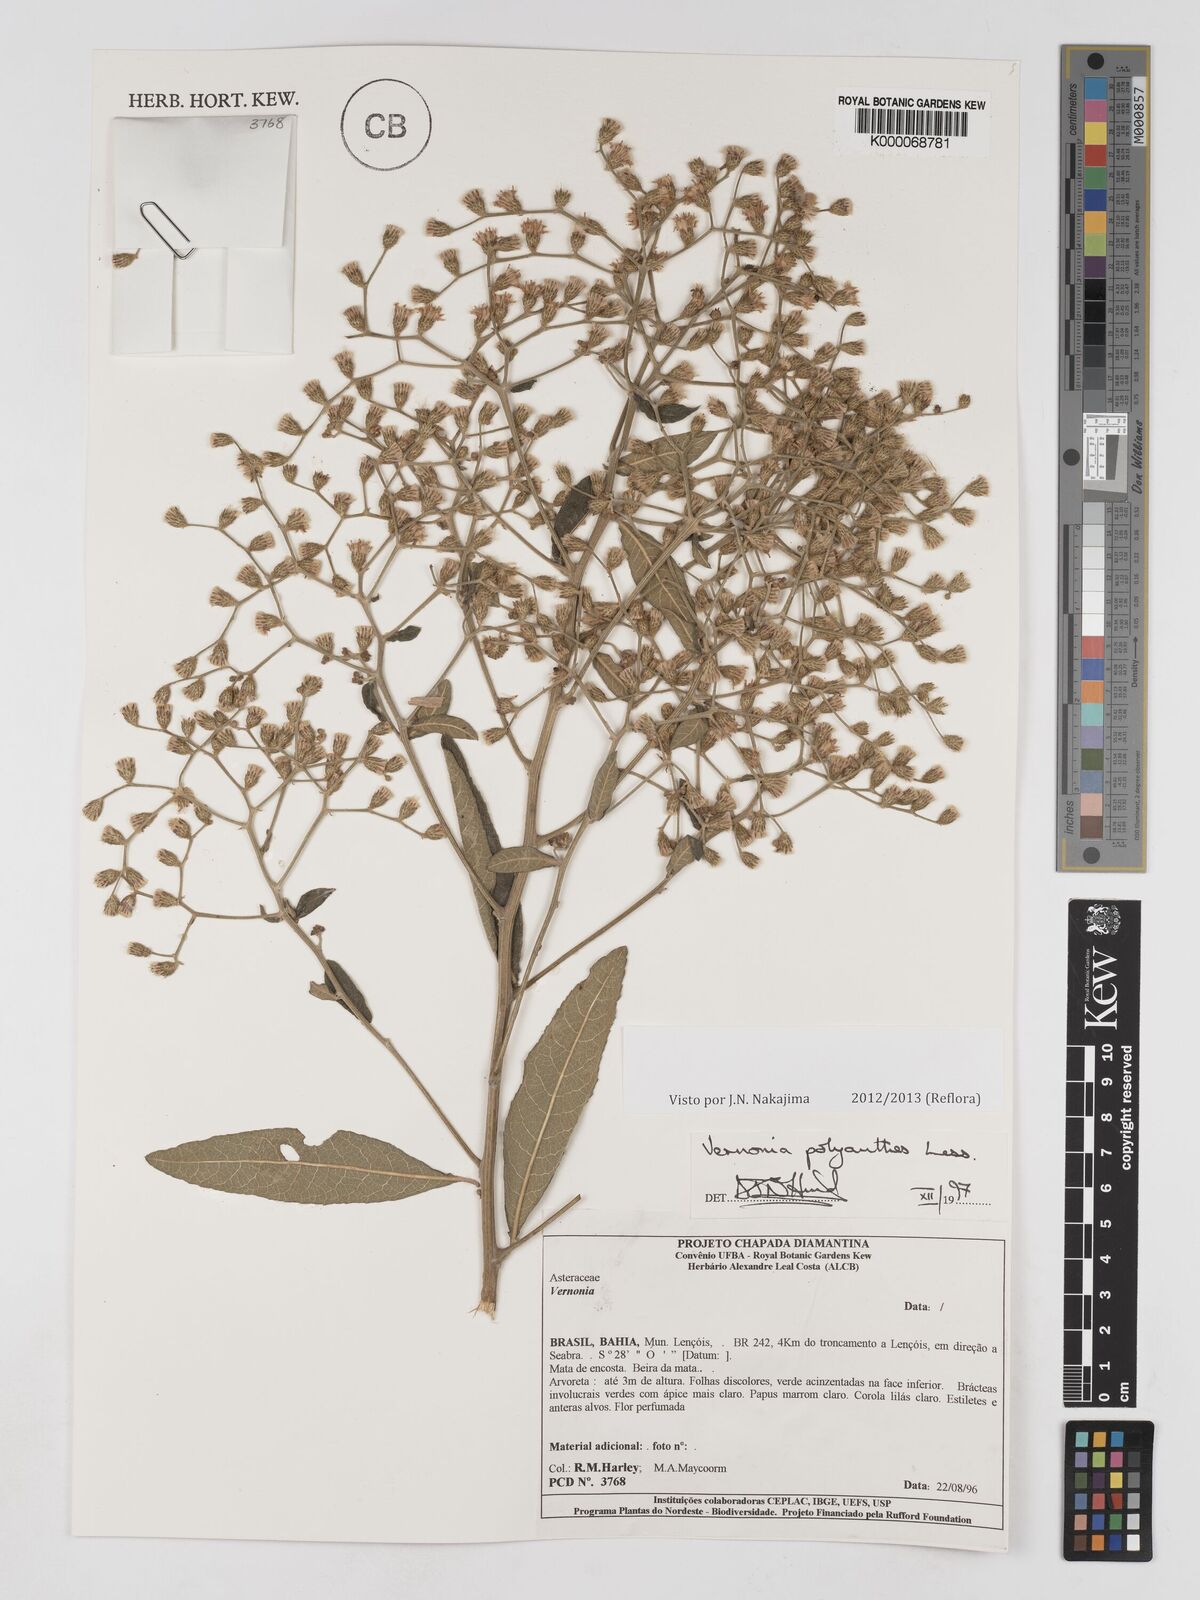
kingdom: Plantae
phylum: Tracheophyta
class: Magnoliopsida
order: Asterales
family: Asteraceae
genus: Vernonanthura
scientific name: Vernonanthura polyanthes
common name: Tree aster
